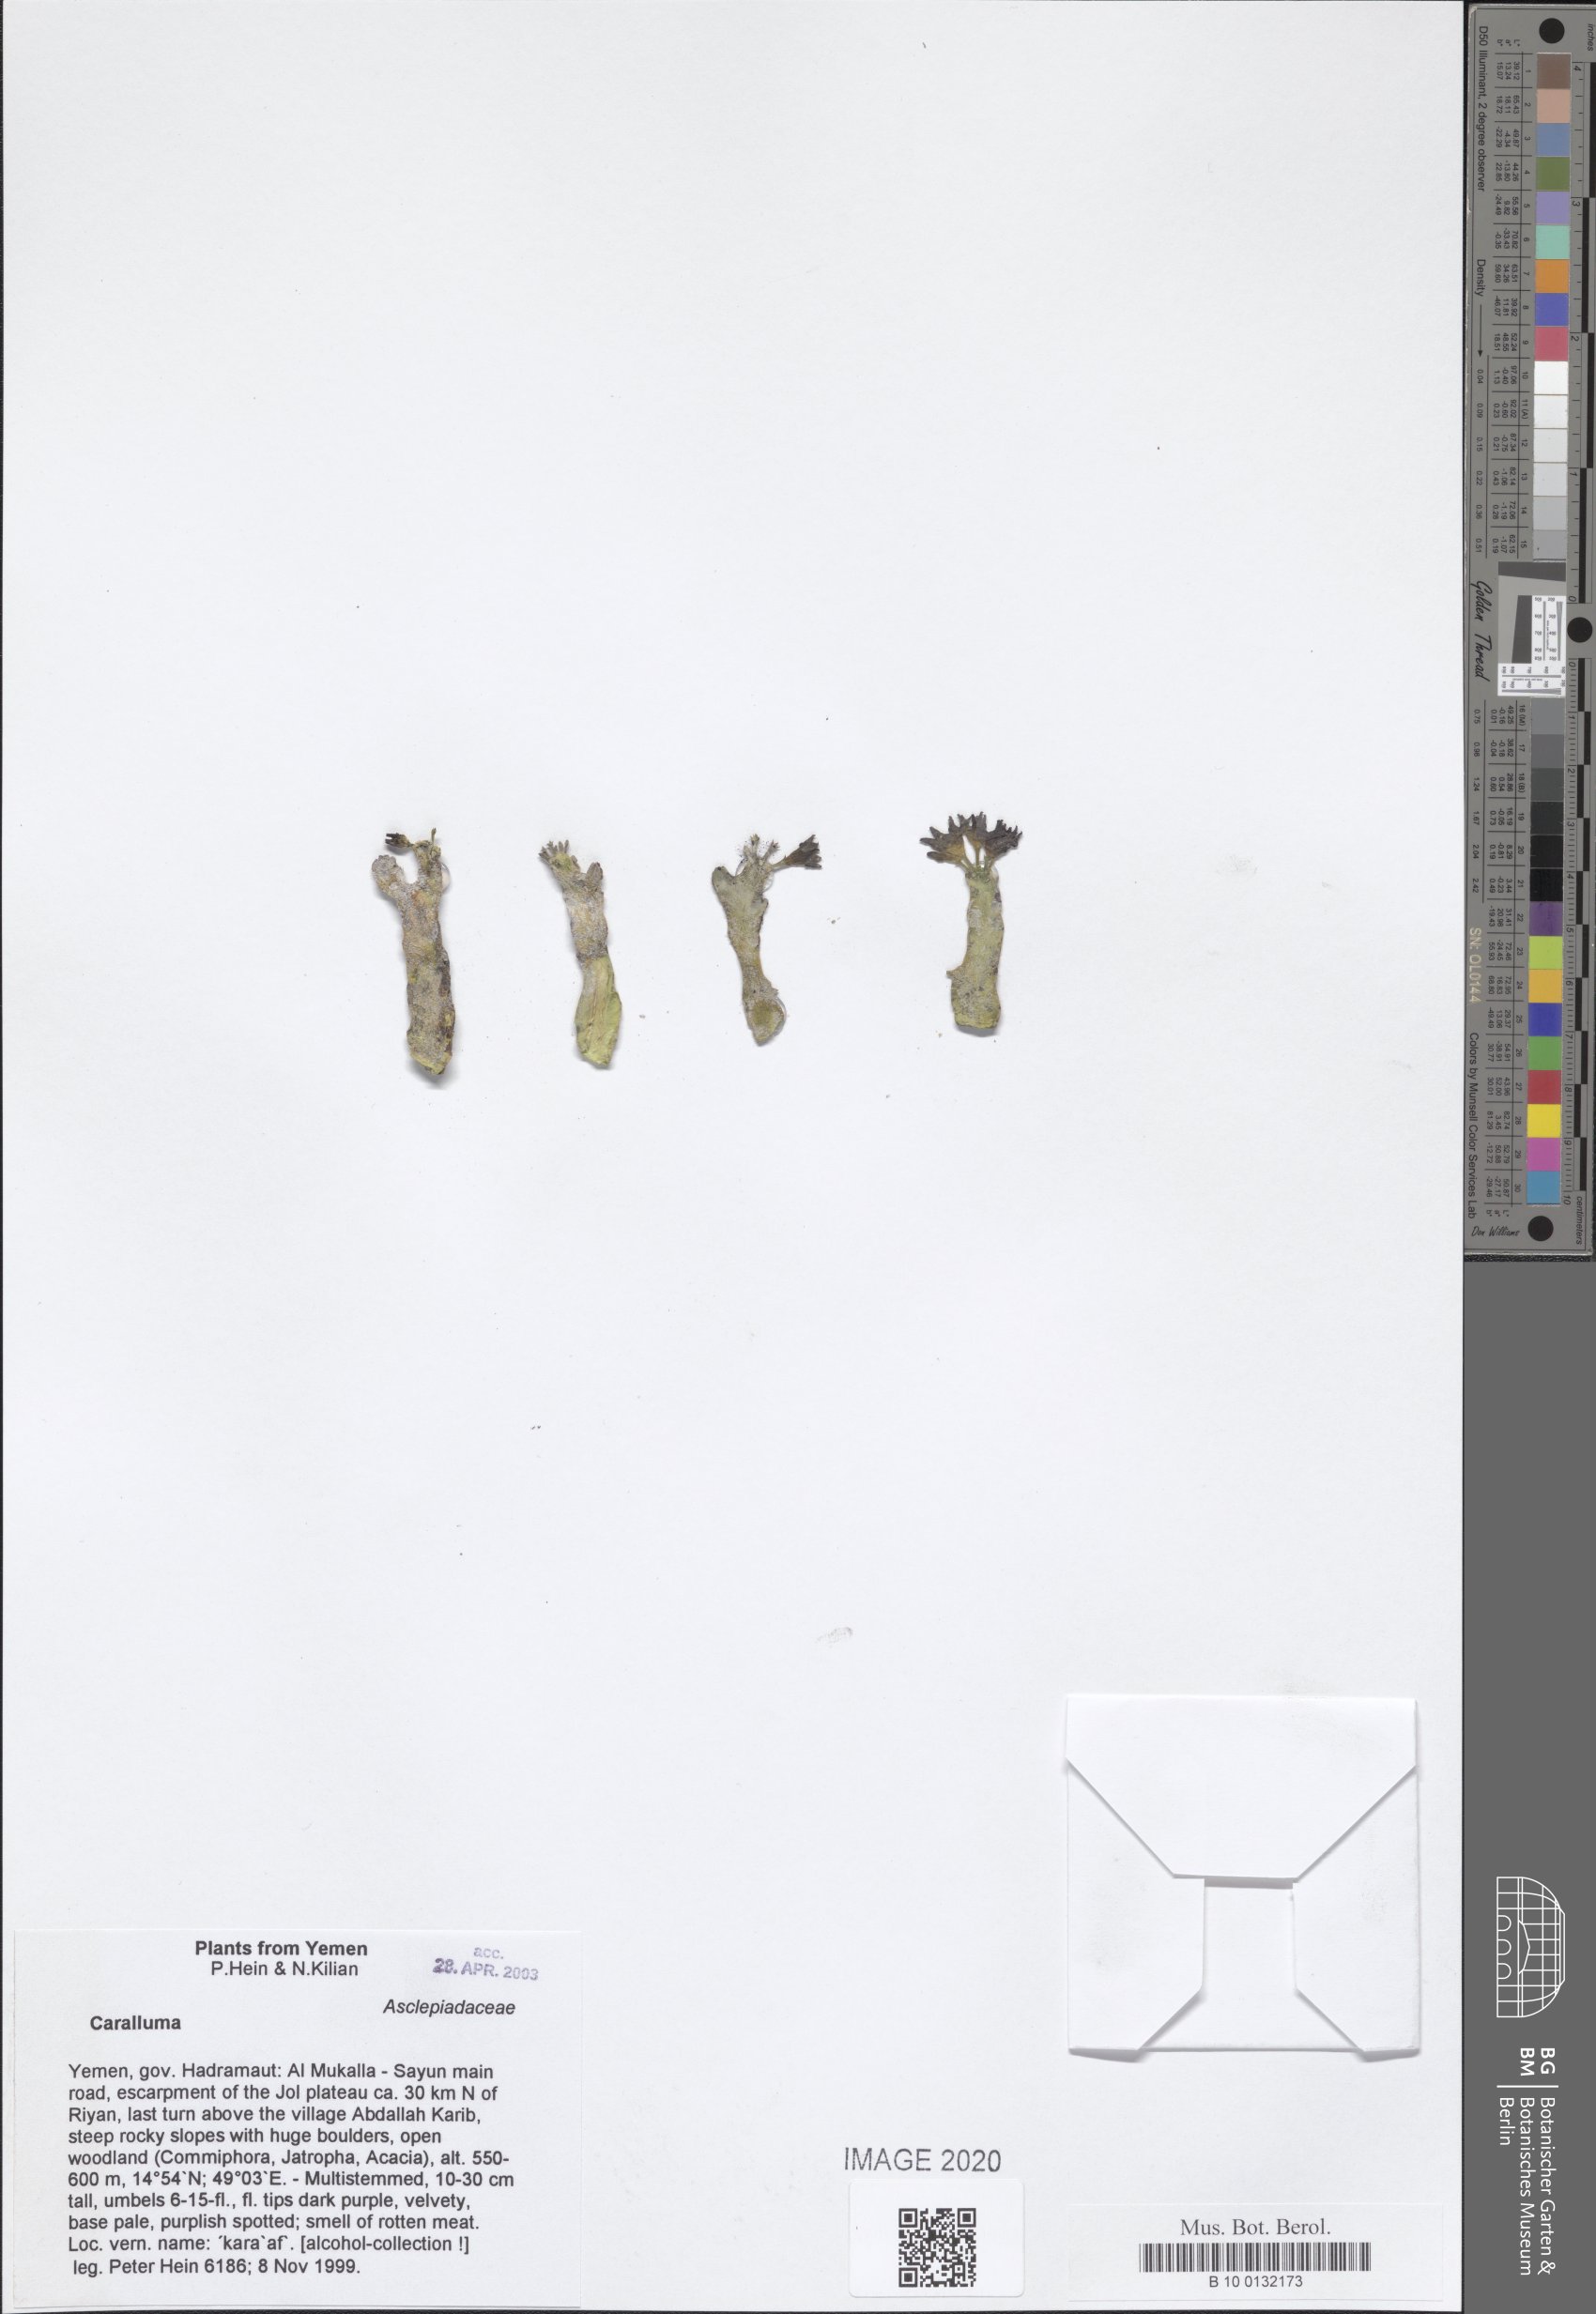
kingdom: Plantae
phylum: Tracheophyta
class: Magnoliopsida
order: Gentianales
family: Apocynaceae
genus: Ceropegia
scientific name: Ceropegia awdeliana
